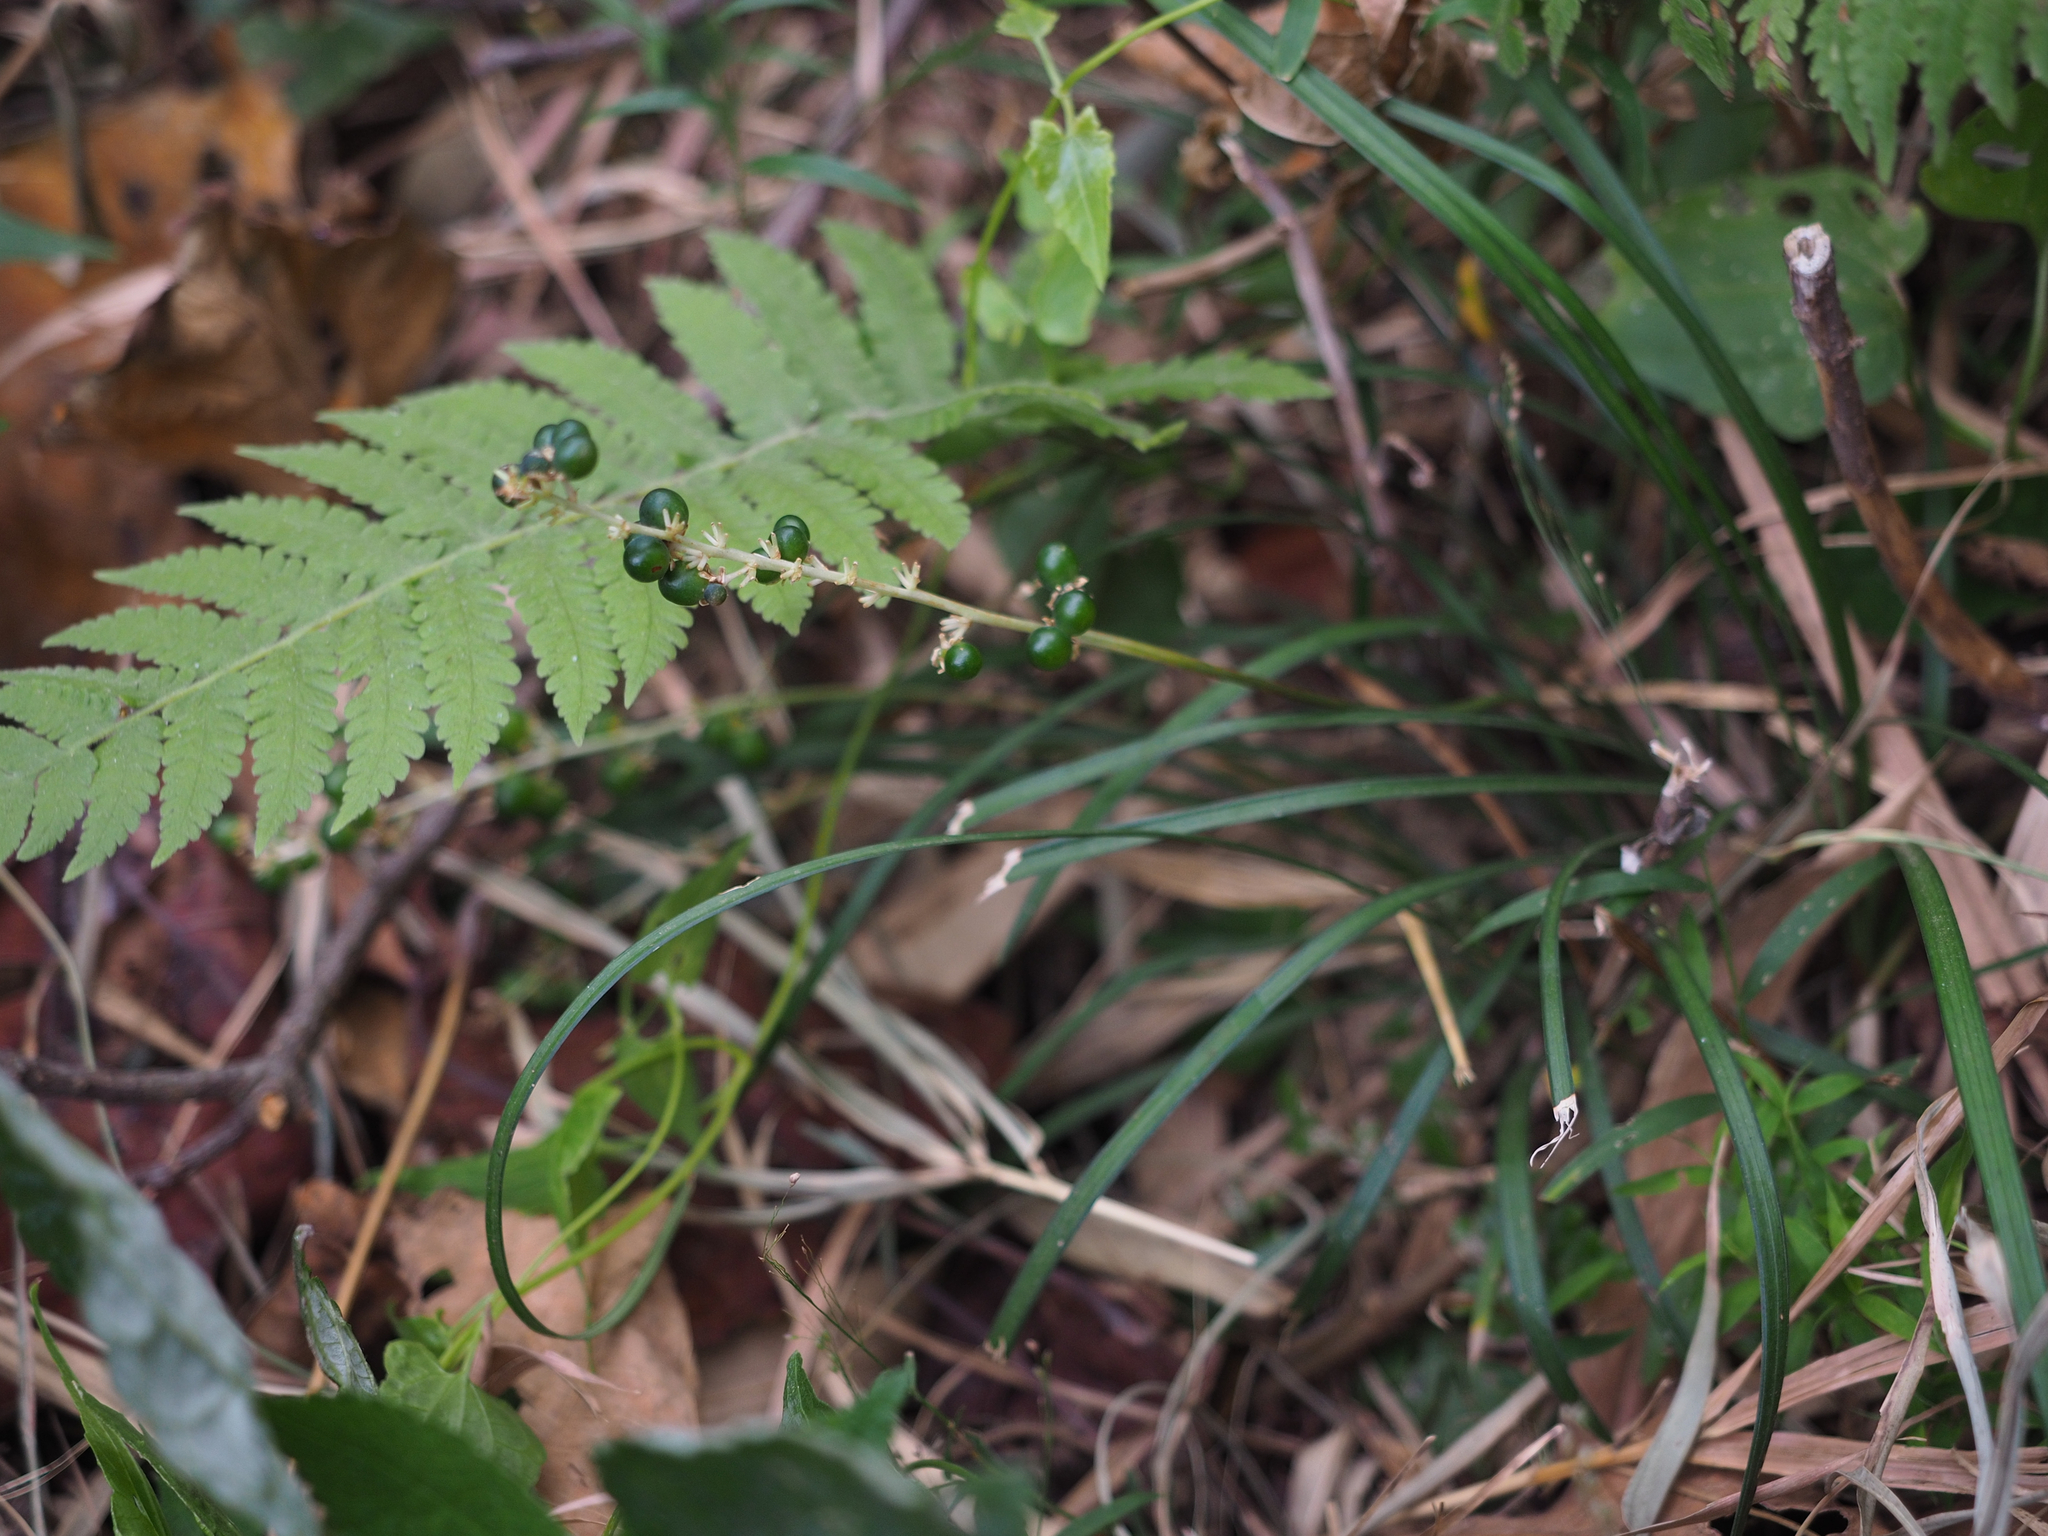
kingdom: Plantae
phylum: Tracheophyta
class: Liliopsida
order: Asparagales
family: Asparagaceae
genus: Liriope
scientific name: Liriope graminifolia
